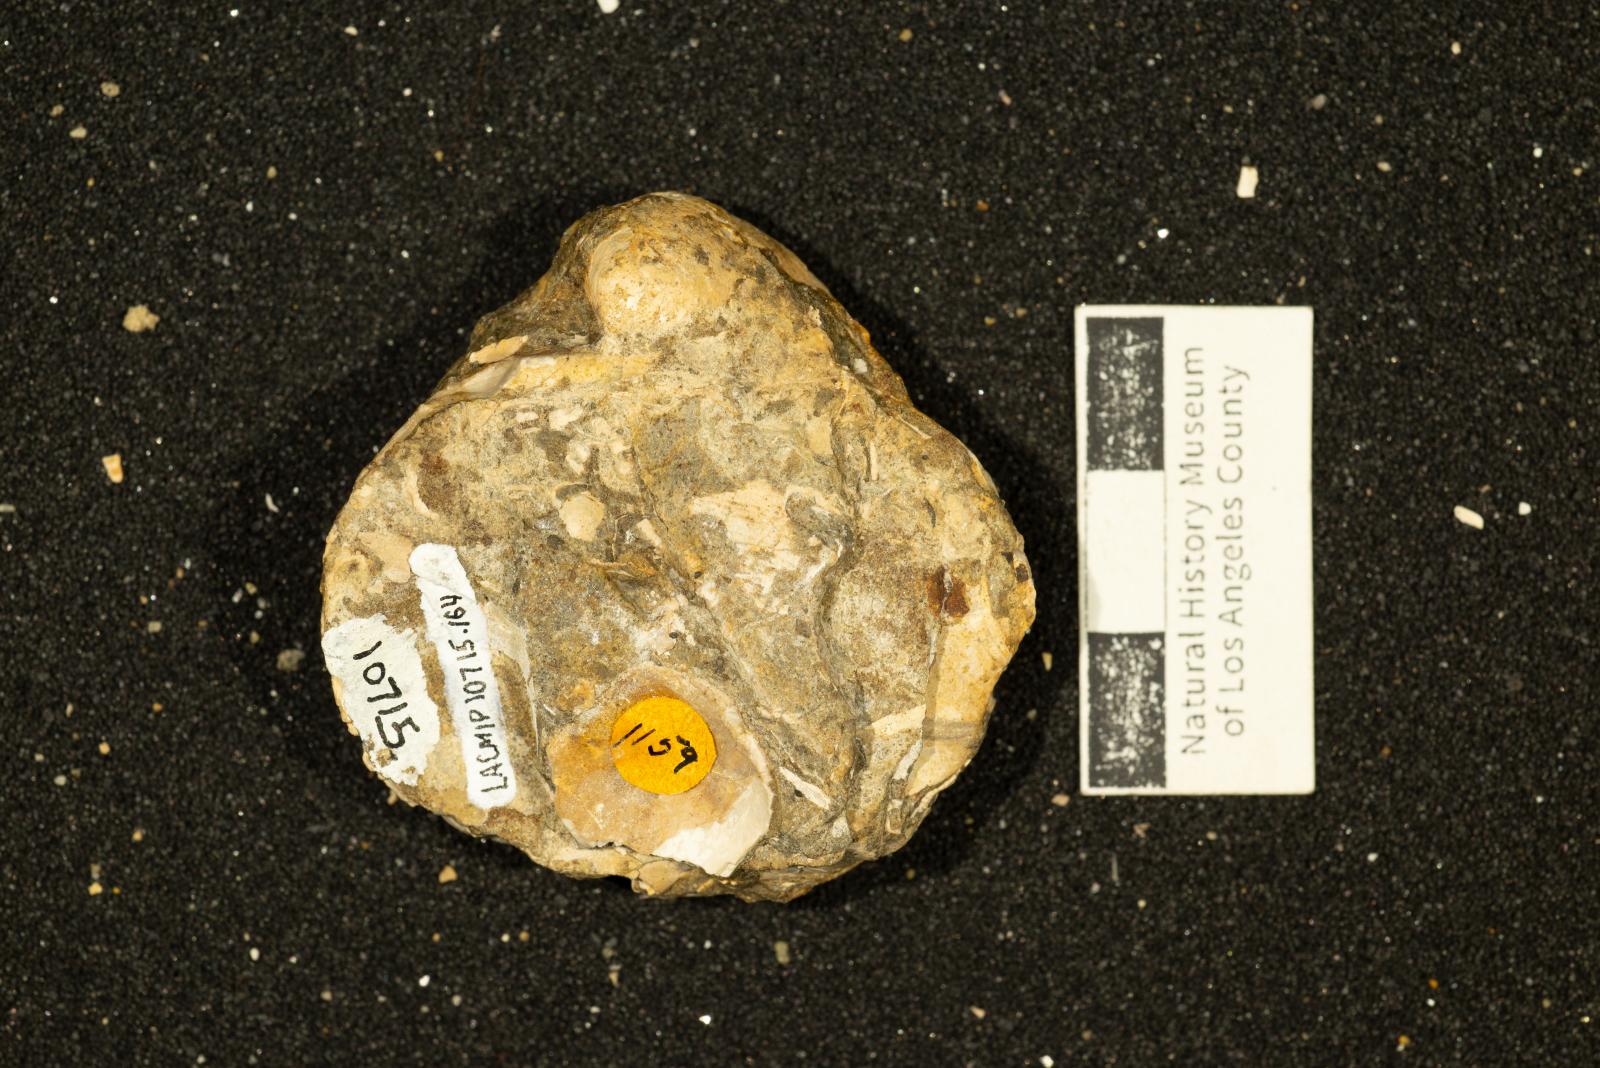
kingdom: Animalia
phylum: Mollusca
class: Bivalvia
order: Adapedonta
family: Edmondiidae
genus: Clisocolus
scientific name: Clisocolus dubius
